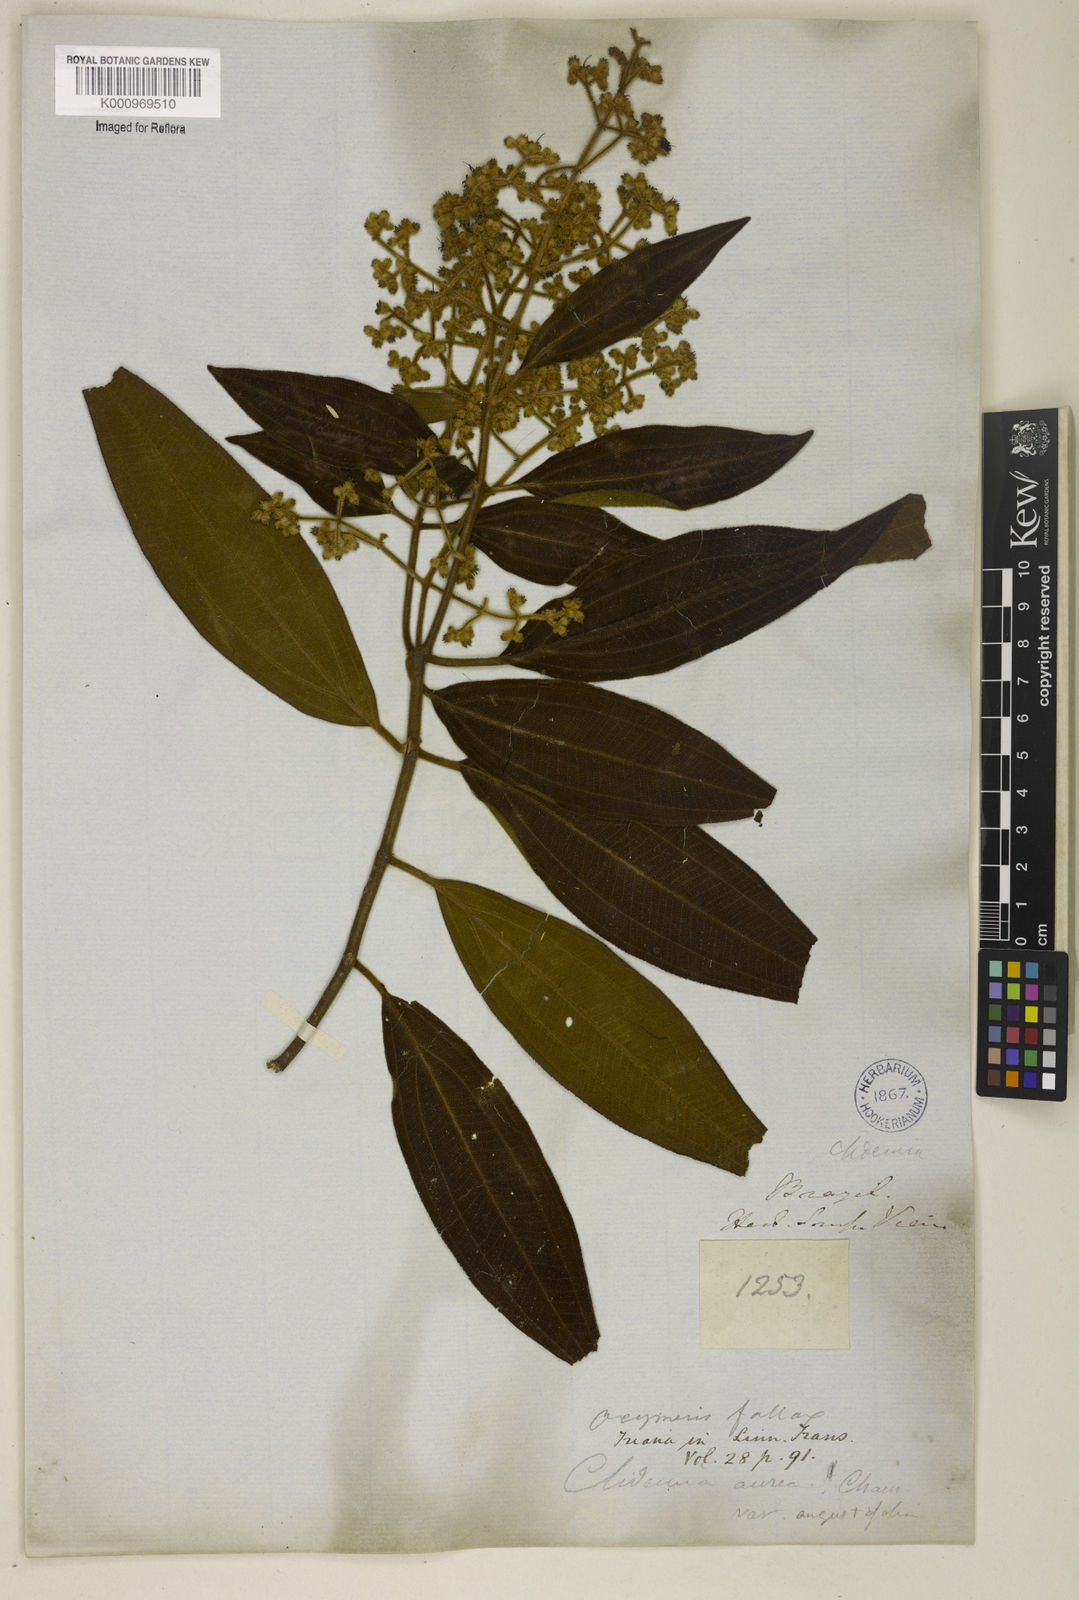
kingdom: Plantae
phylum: Tracheophyta
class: Magnoliopsida
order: Myrtales
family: Melastomataceae
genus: Miconia
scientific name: Miconia leaconfusa
